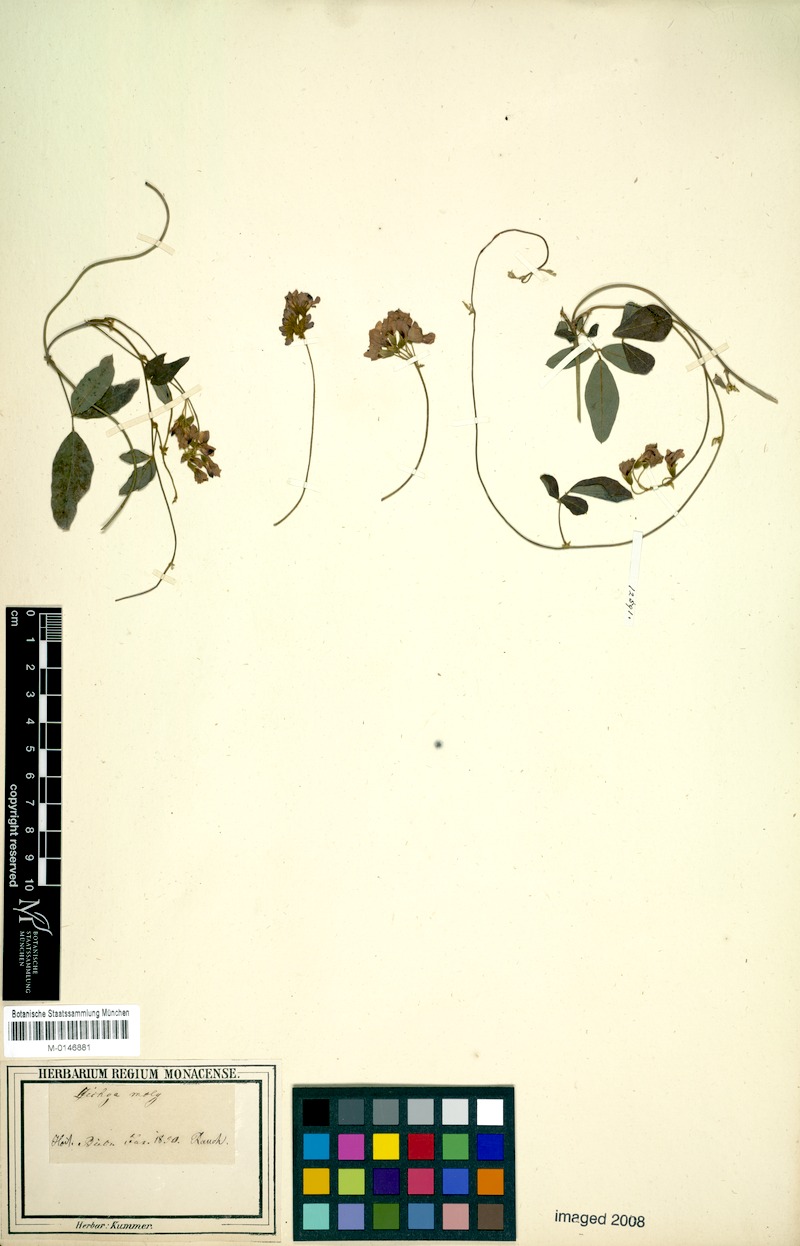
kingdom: Plantae
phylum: Tracheophyta
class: Magnoliopsida
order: Fabales
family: Fabaceae
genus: Kennedia
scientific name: Kennedia coccinea
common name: Coralvine
